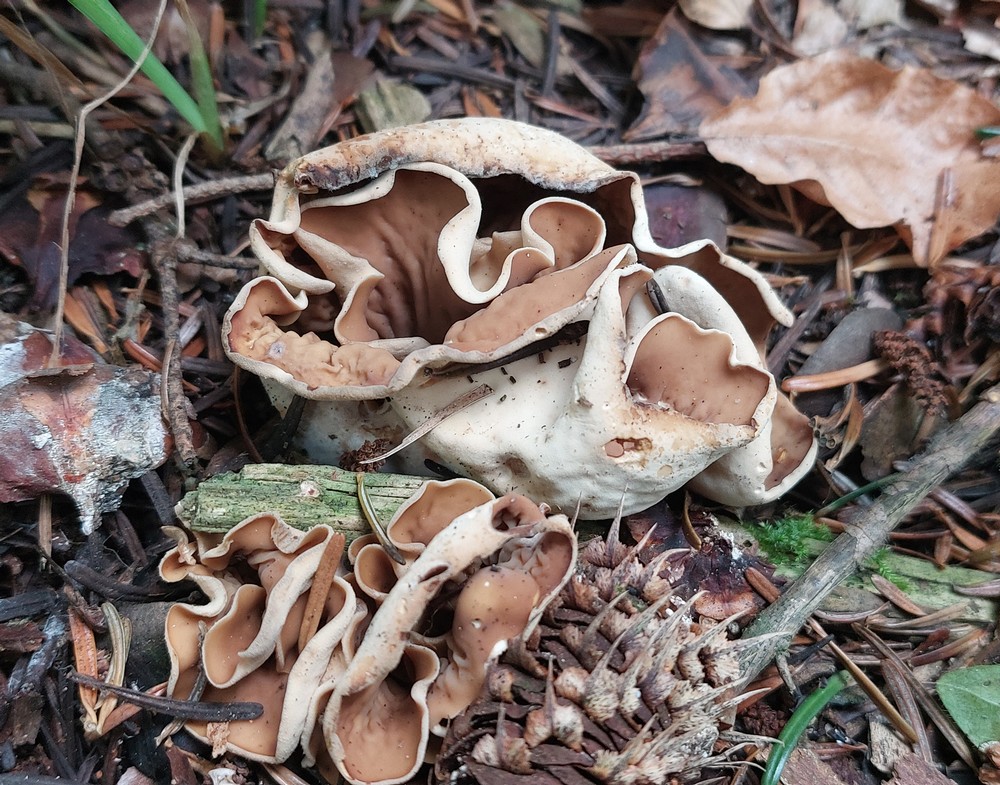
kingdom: Fungi
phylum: Ascomycota
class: Pezizomycetes
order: Pezizales
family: Otideaceae
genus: Otidea
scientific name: Otidea alutacea
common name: læder-ørebæger
